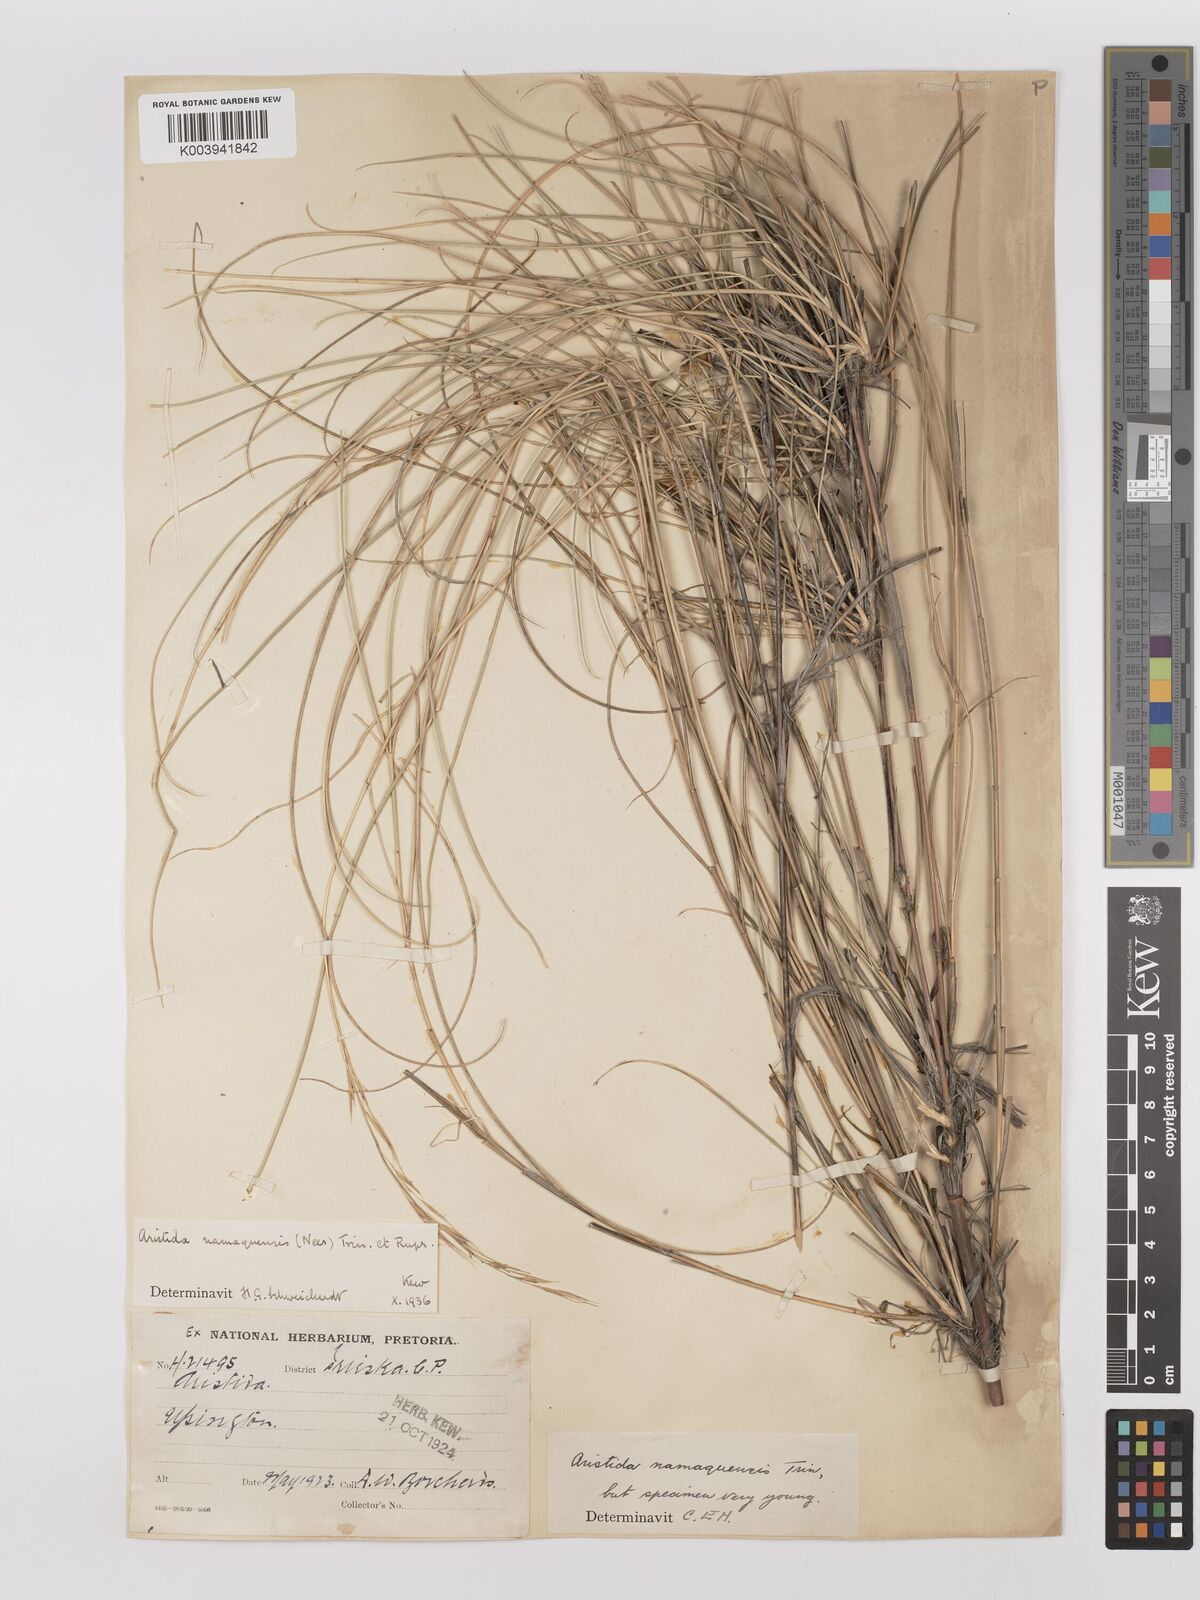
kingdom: Plantae
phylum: Tracheophyta
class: Liliopsida
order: Poales
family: Poaceae
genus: Stipagrostis
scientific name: Stipagrostis namaquensis
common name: River bushman grass
